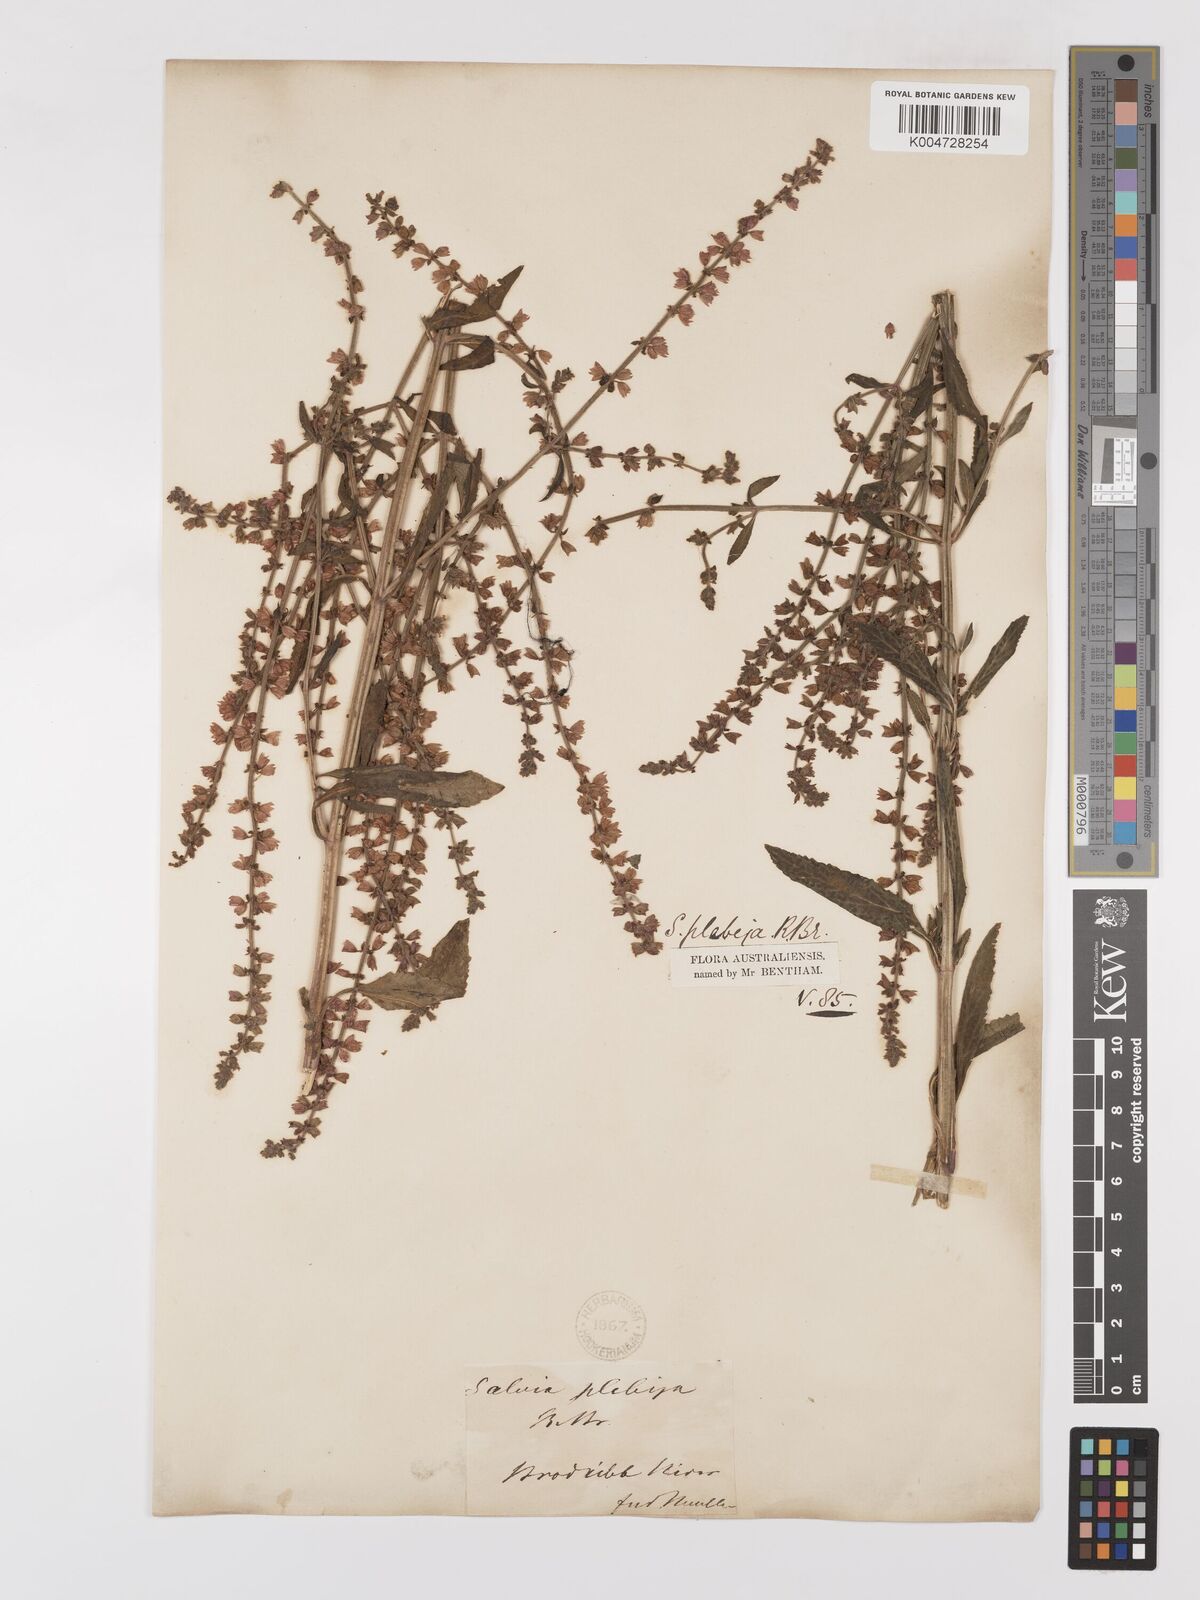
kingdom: Plantae
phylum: Tracheophyta
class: Magnoliopsida
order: Lamiales
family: Lamiaceae
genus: Salvia
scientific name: Salvia plebeia
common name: Australian sage
